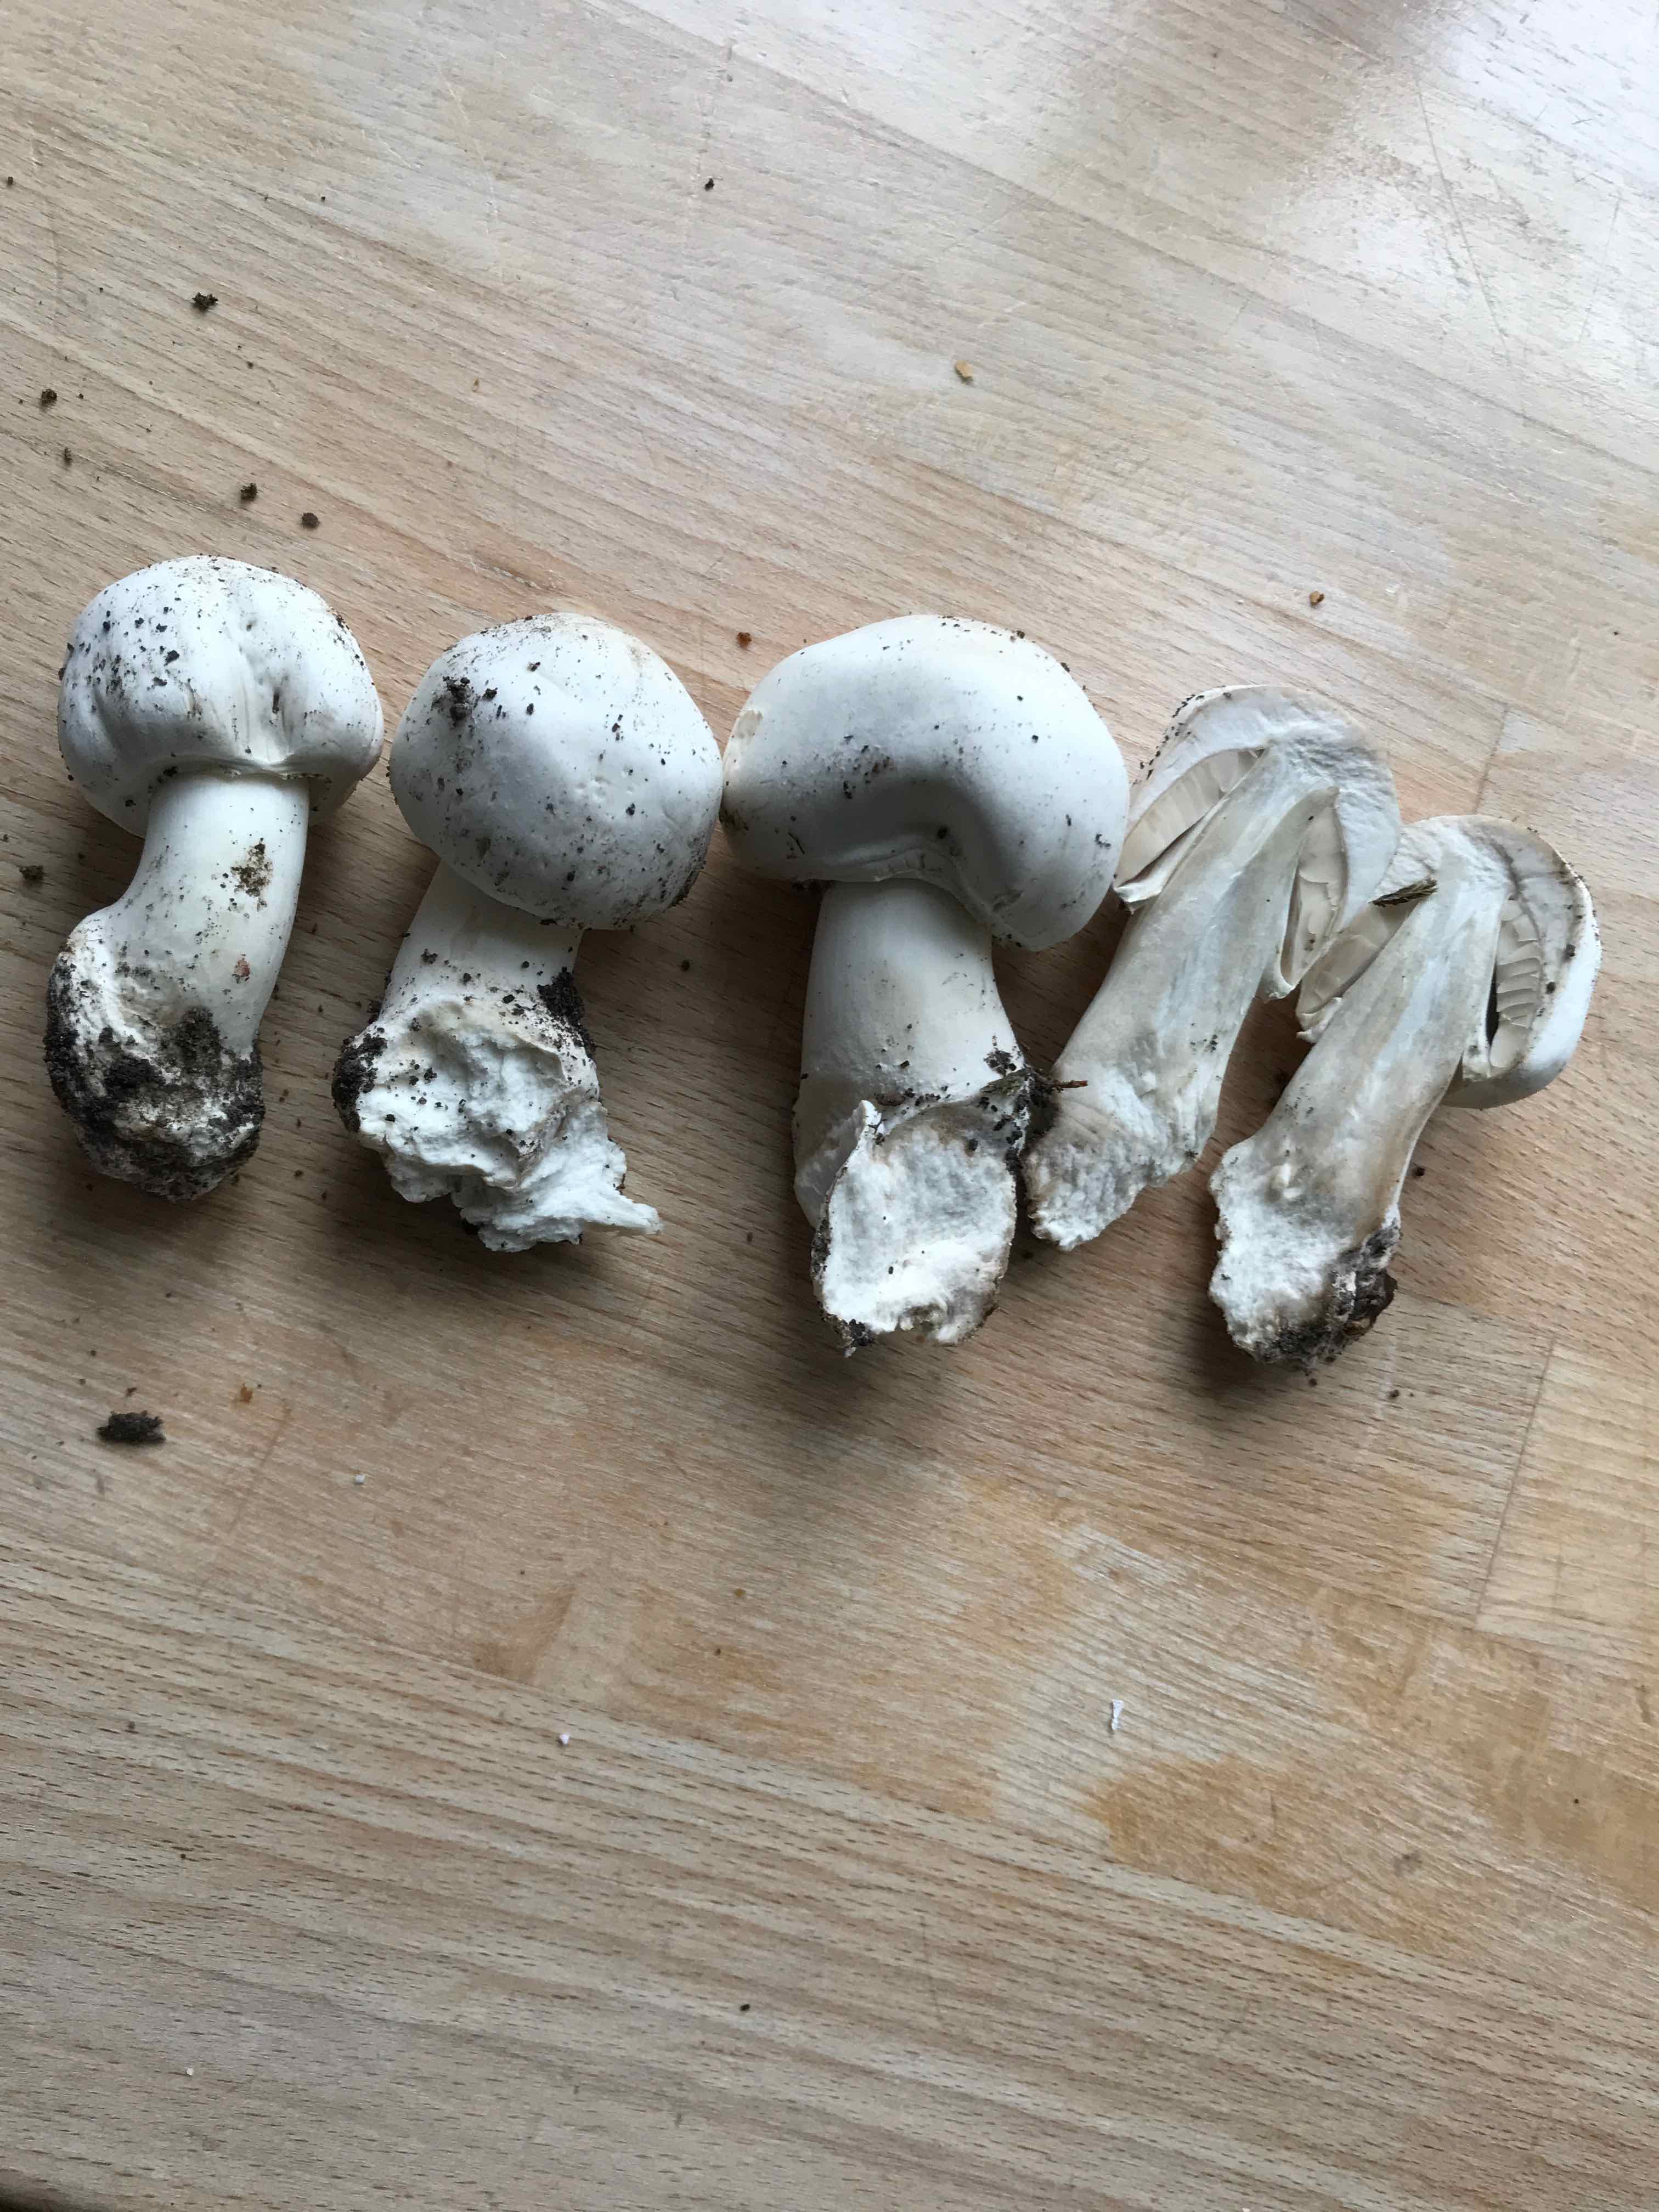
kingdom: Fungi
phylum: Basidiomycota
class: Agaricomycetes
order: Agaricales
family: Agaricaceae
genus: Agaricus
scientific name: Agaricus
